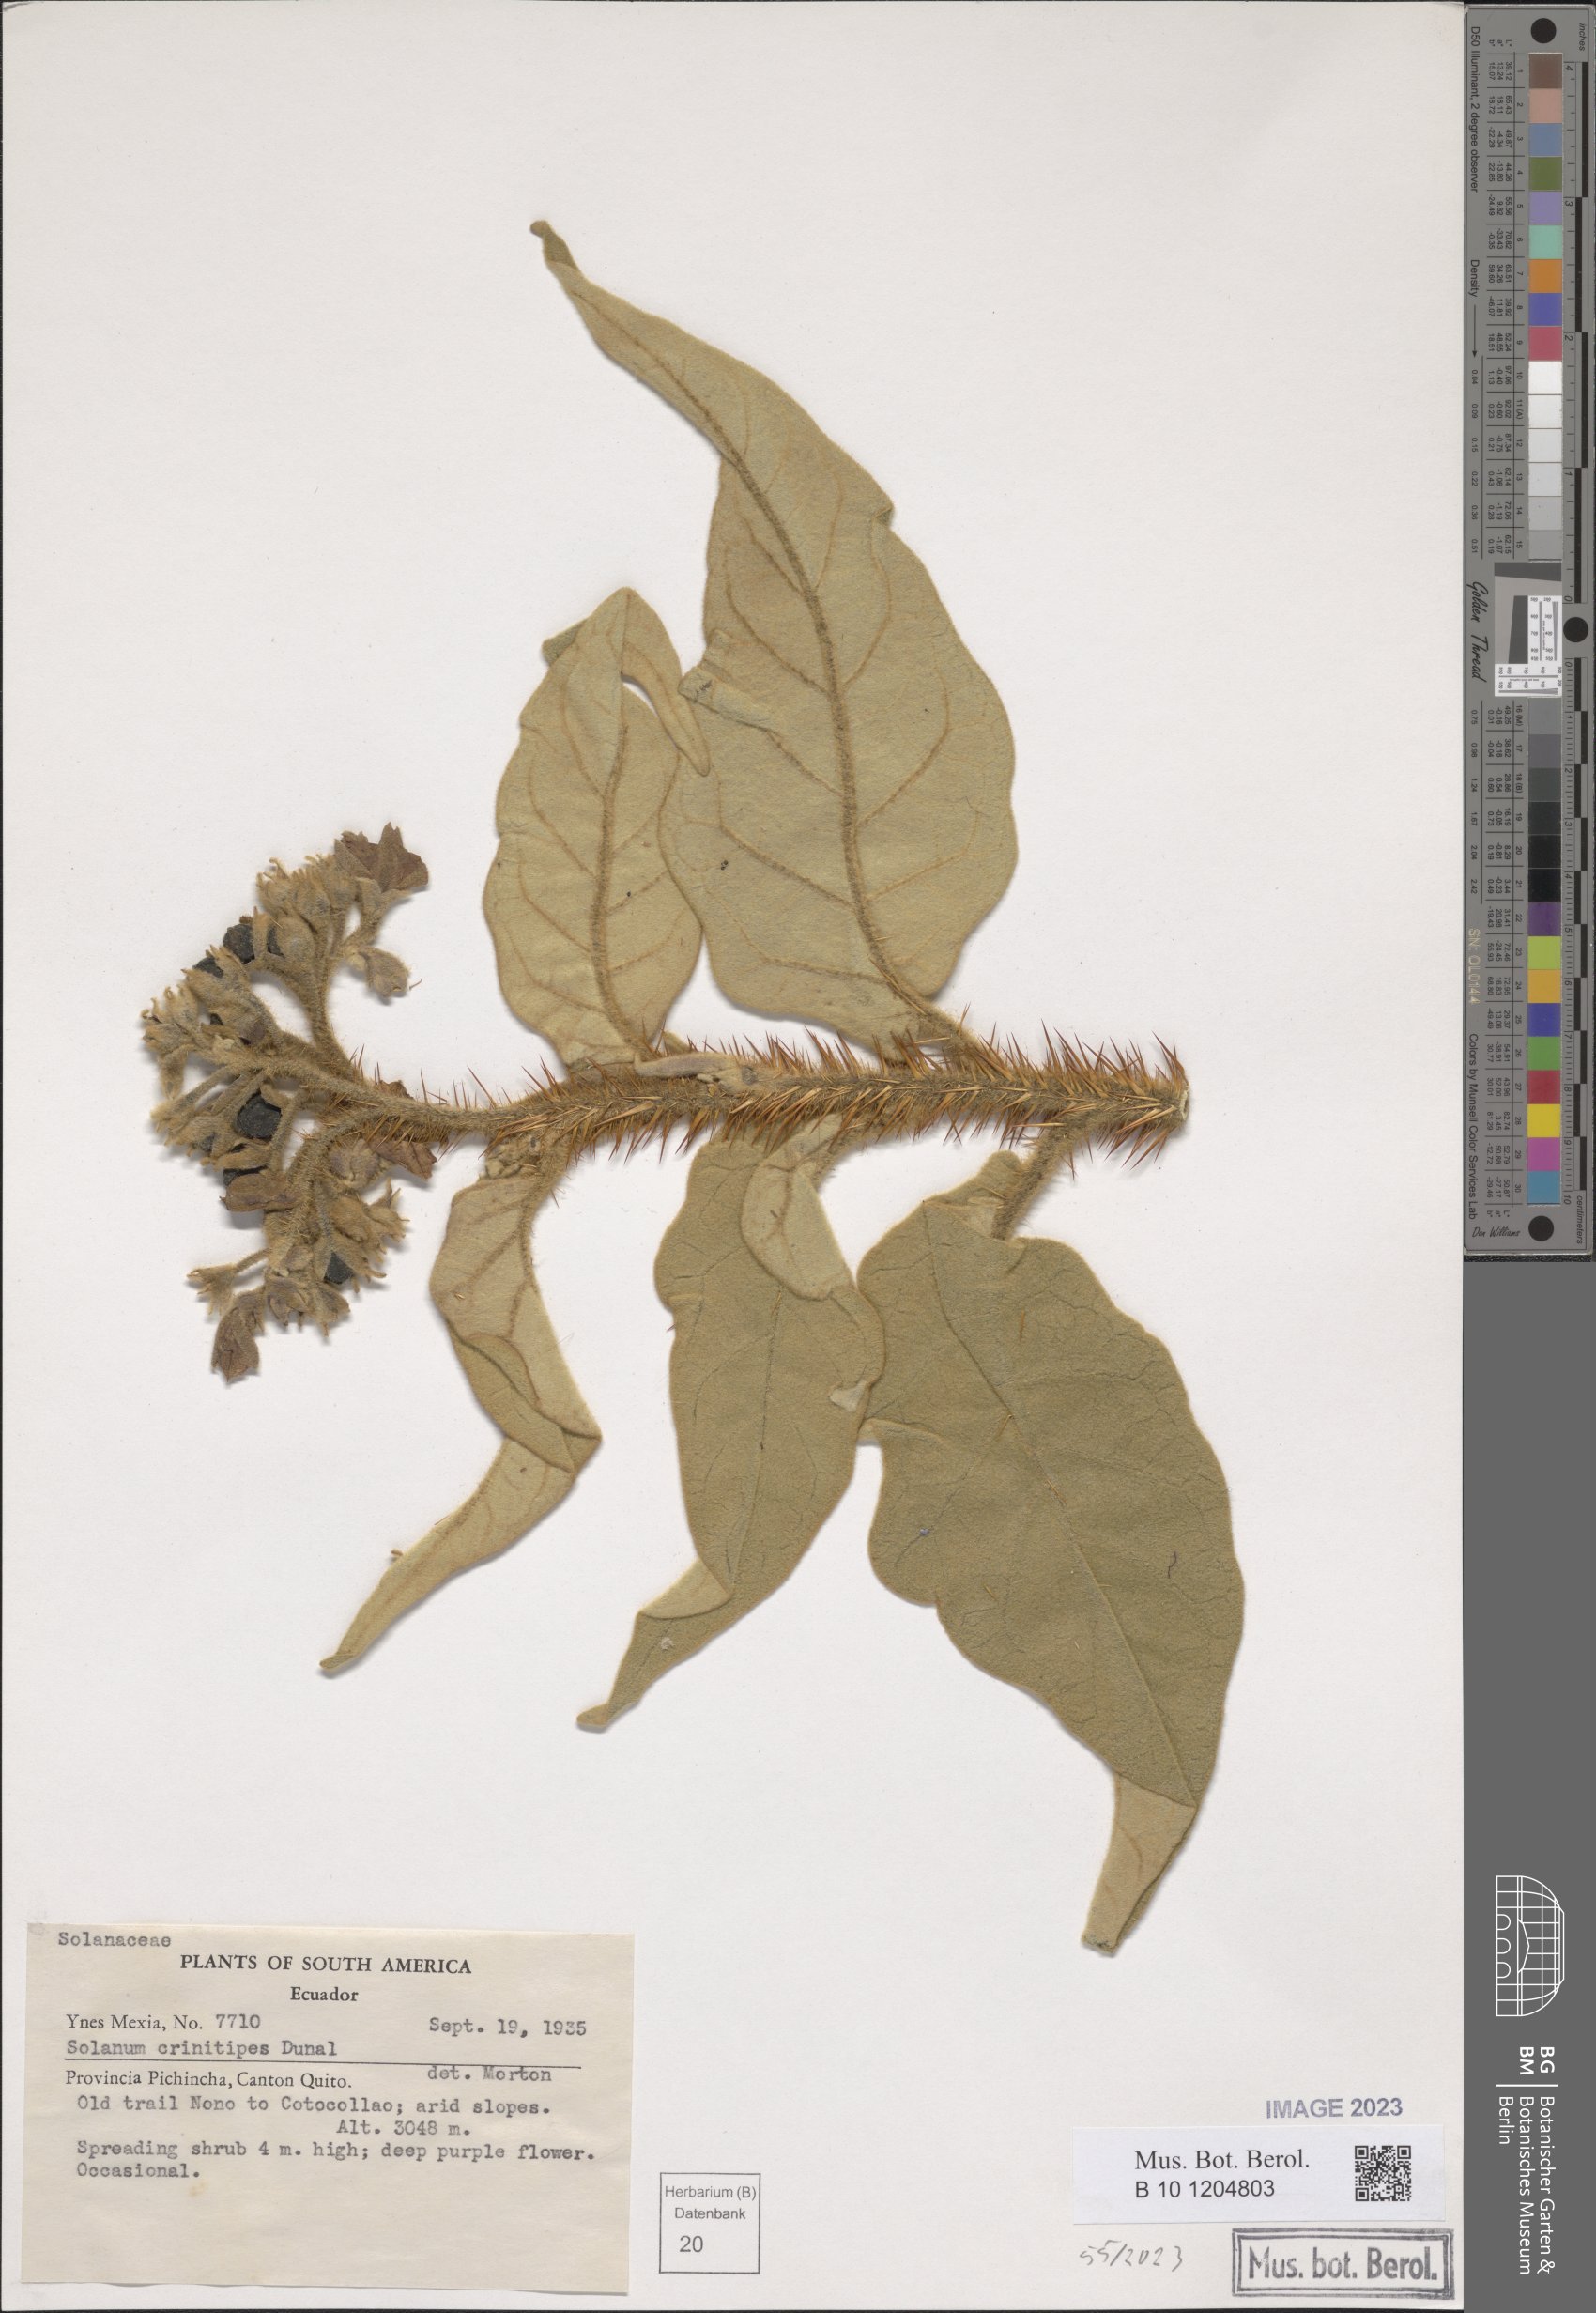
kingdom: Plantae
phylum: Tracheophyta
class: Magnoliopsida
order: Solanales
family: Solanaceae
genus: Solanum
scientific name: Solanum crinitipes
